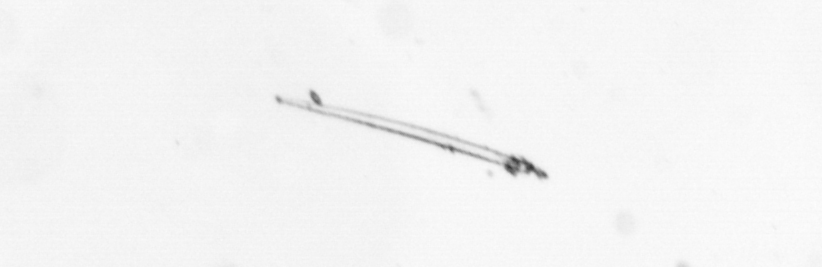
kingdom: Chromista
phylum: Ochrophyta
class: Bacillariophyceae
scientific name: Bacillariophyceae
